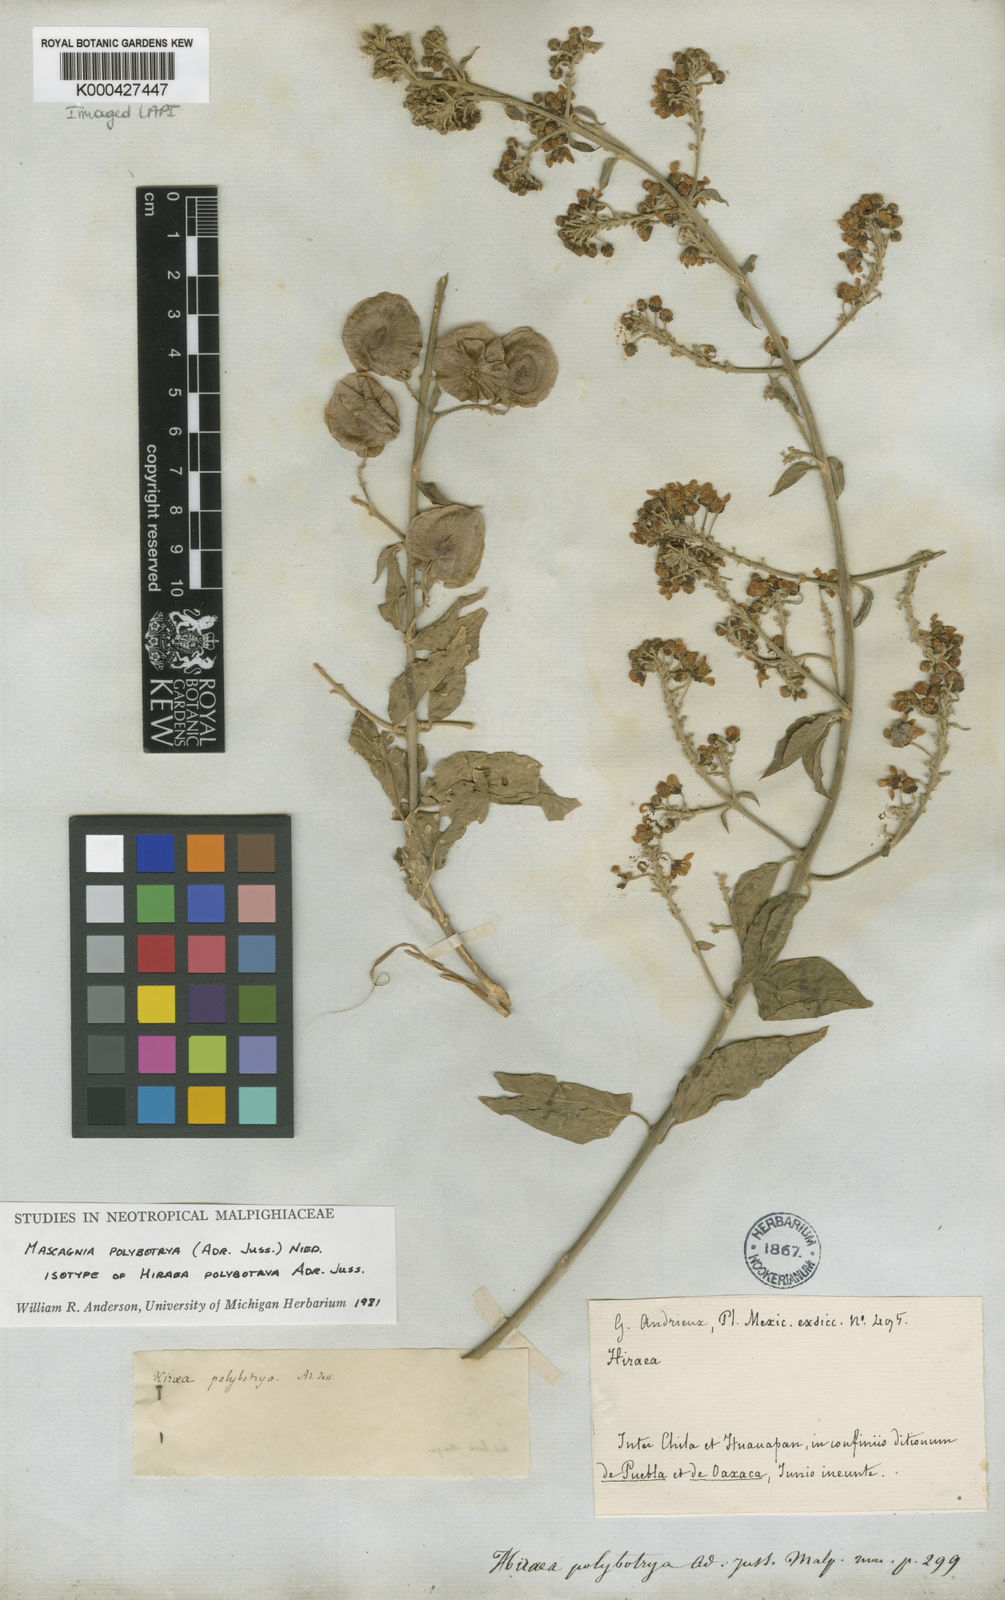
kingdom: Plantae
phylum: Tracheophyta
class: Magnoliopsida
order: Malpighiales
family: Malpighiaceae
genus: Mascagnia
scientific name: Mascagnia polybotrya
